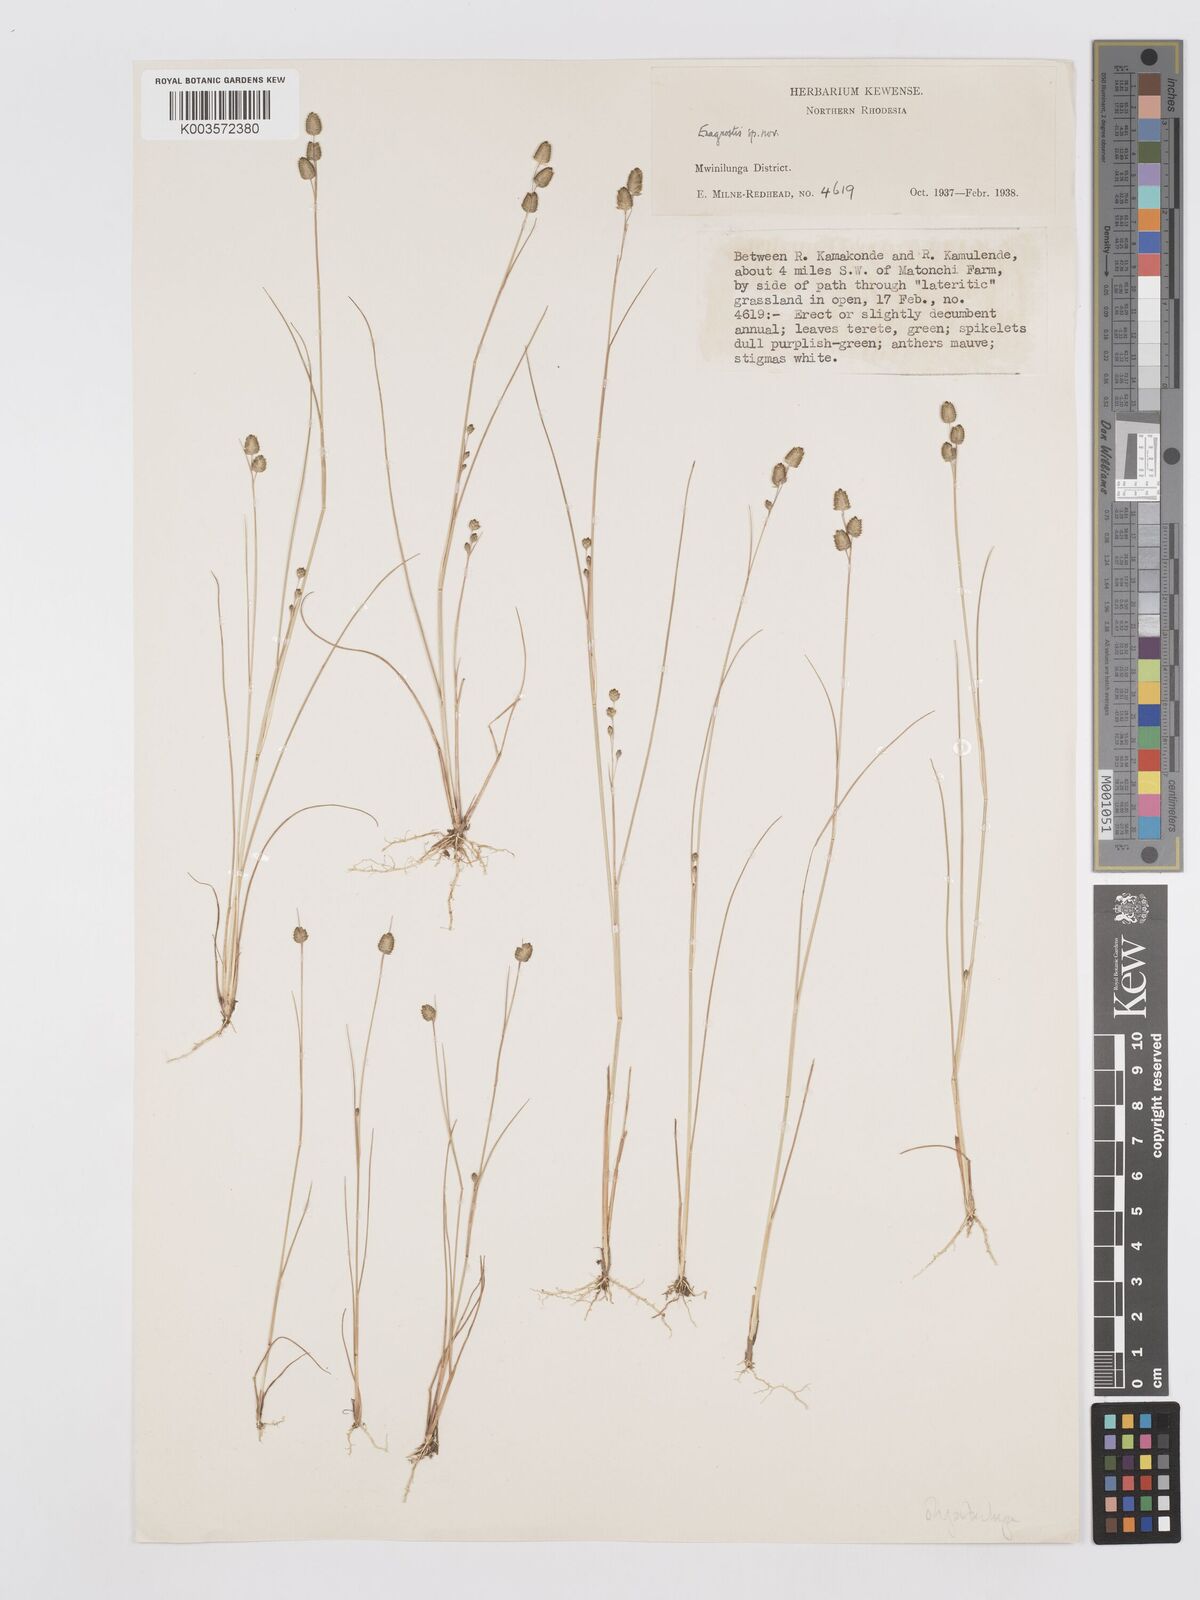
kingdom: Plantae
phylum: Tracheophyta
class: Liliopsida
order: Poales
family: Poaceae
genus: Eragrostis
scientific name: Eragrostis oligostachya
